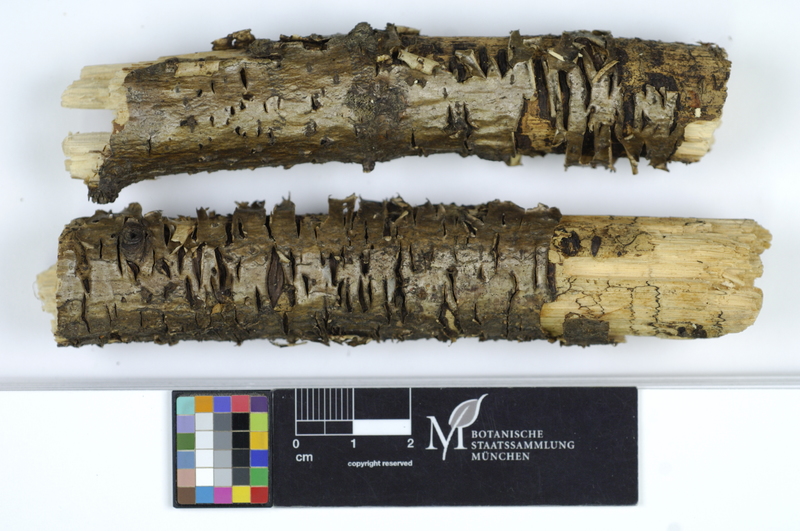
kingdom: Fungi
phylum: Ascomycota
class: Leotiomycetes
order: Rhytismatales
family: Rhytismataceae
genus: Colpoma
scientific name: Colpoma quercinum
